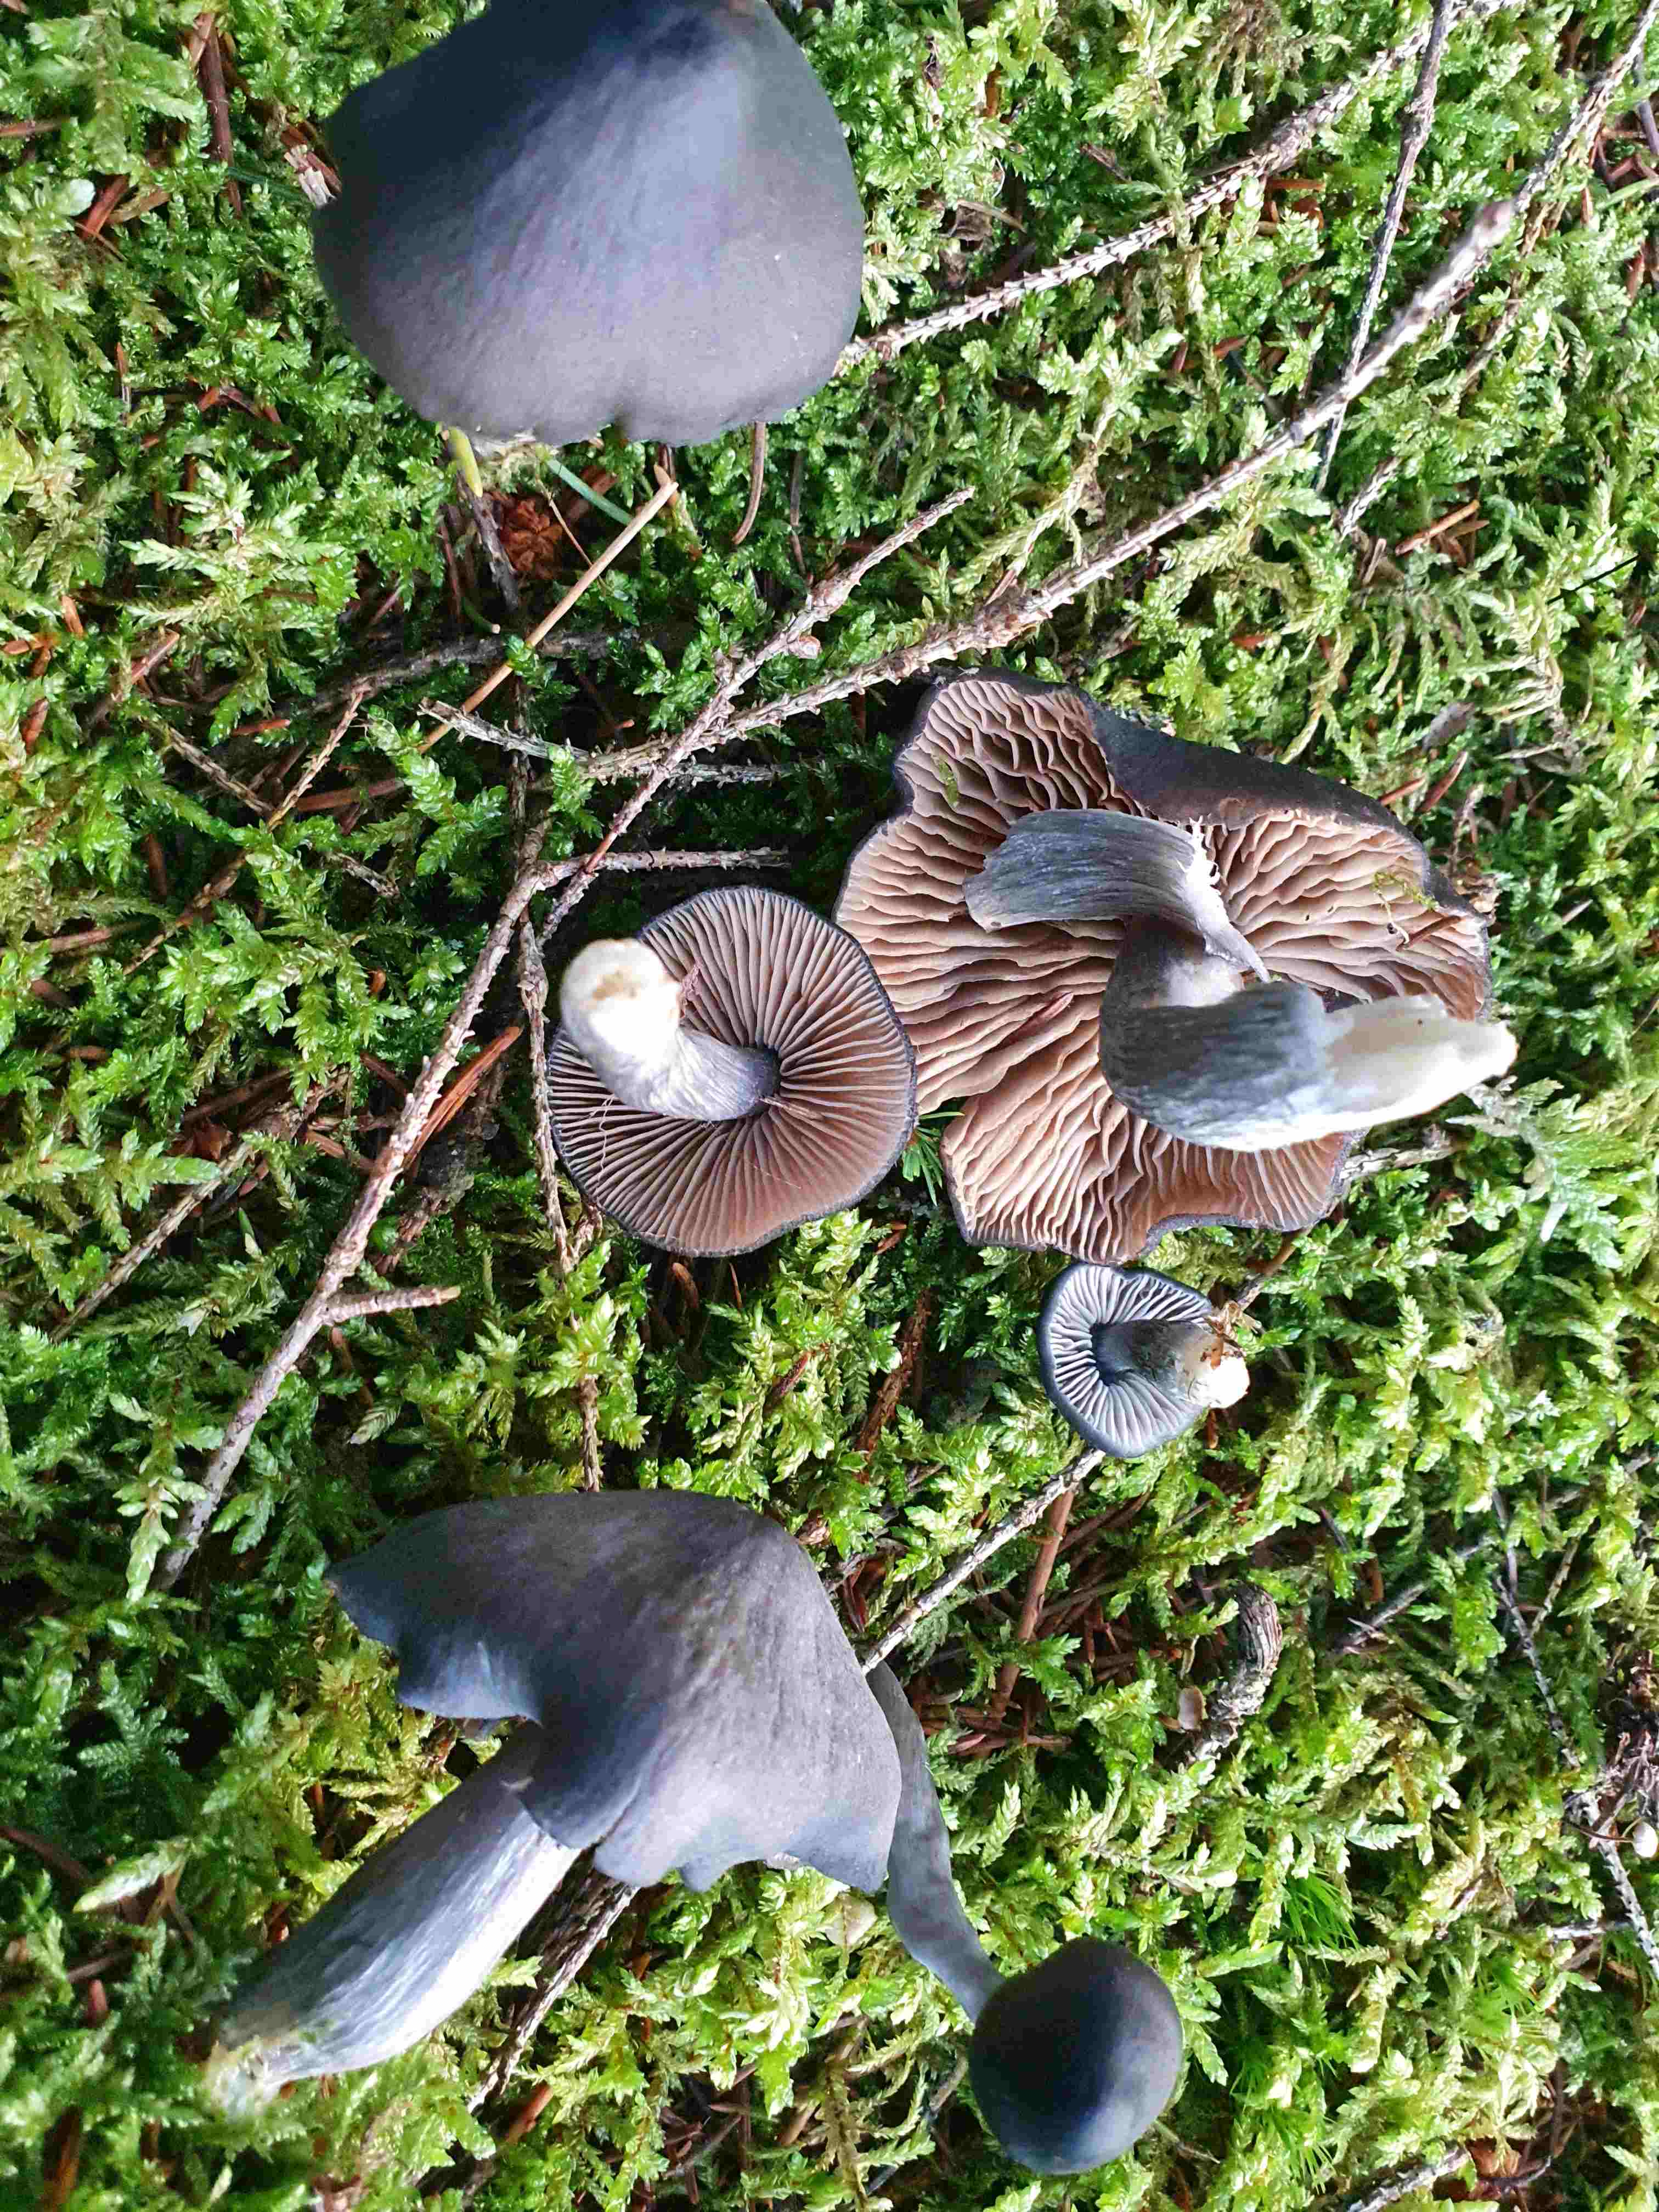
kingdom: Fungi
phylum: Basidiomycota
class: Agaricomycetes
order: Agaricales
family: Entolomataceae
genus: Entocybe
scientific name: Entocybe nitida
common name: stålblå rødblad
